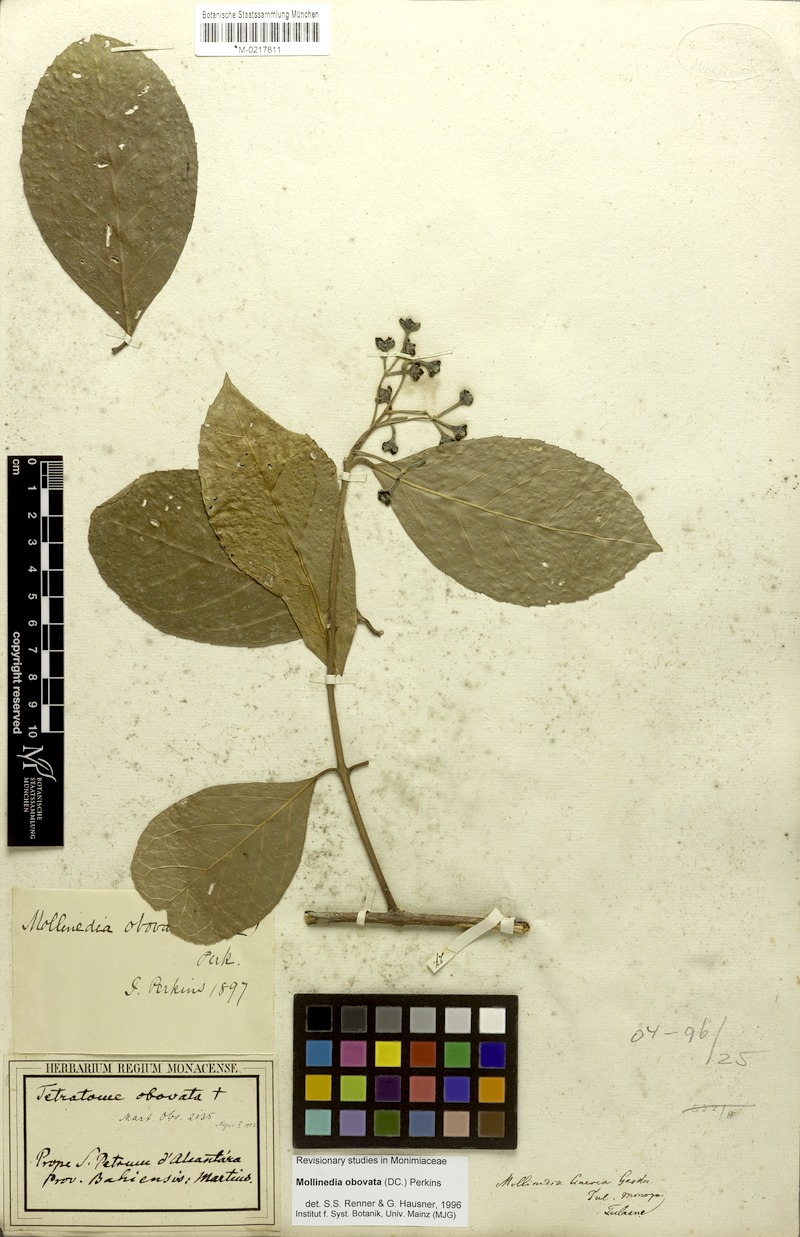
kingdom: Plantae
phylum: Tracheophyta
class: Magnoliopsida
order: Laurales
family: Monimiaceae
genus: Mollinedia
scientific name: Mollinedia ovata
